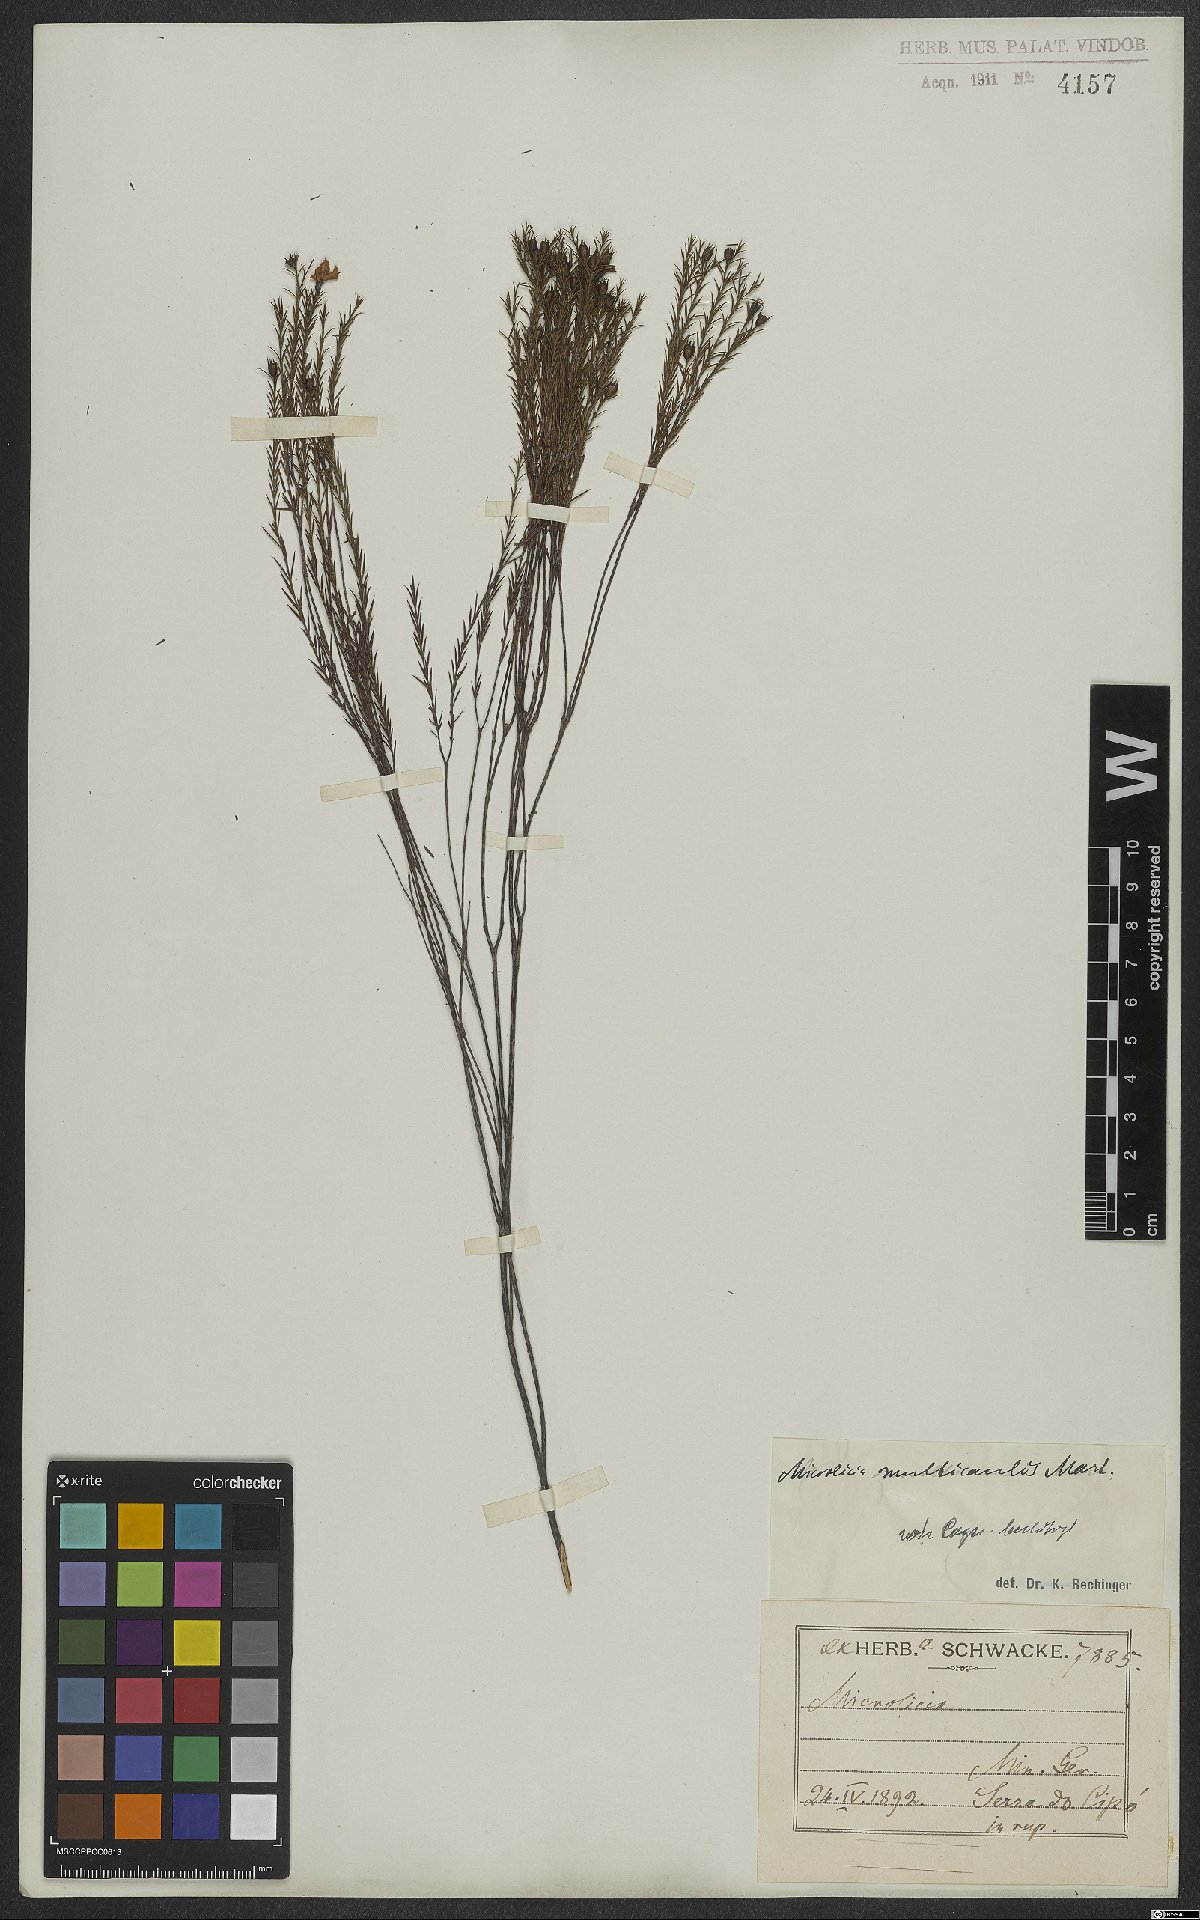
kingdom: Plantae
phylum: Tracheophyta
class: Magnoliopsida
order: Myrtales
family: Melastomataceae
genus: Microlicia
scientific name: Microlicia multicaulis
